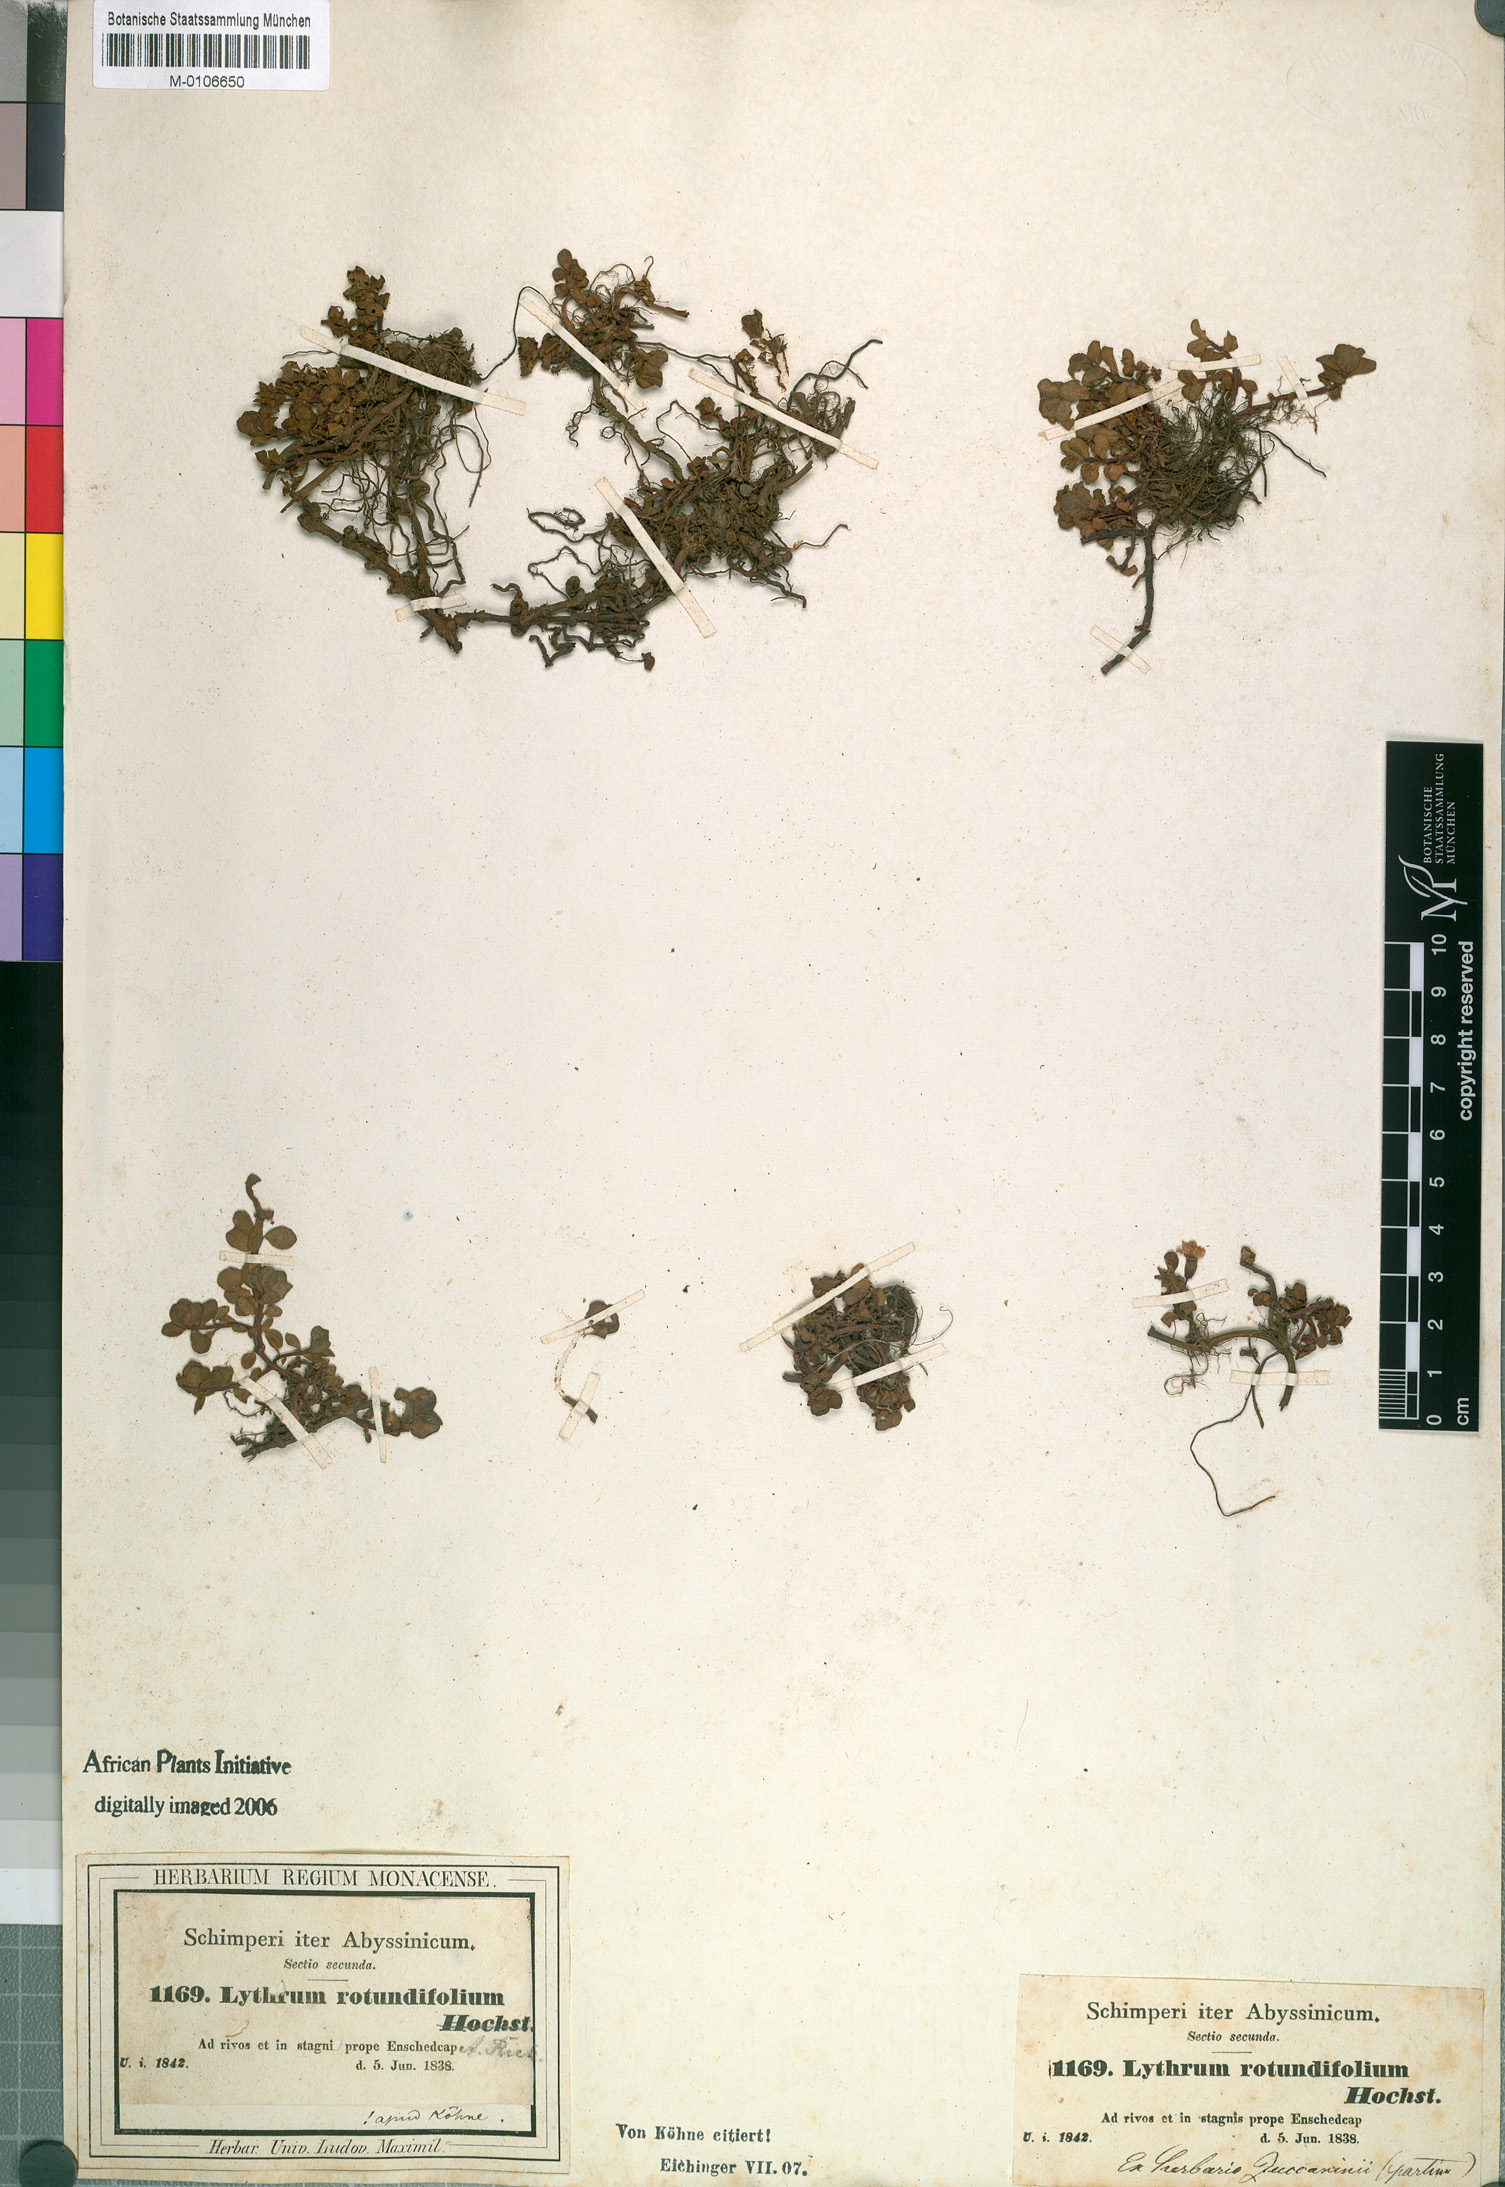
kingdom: Plantae
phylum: Tracheophyta
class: Magnoliopsida
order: Myrtales
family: Lythraceae
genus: Lythrum
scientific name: Lythrum rotundifolium
